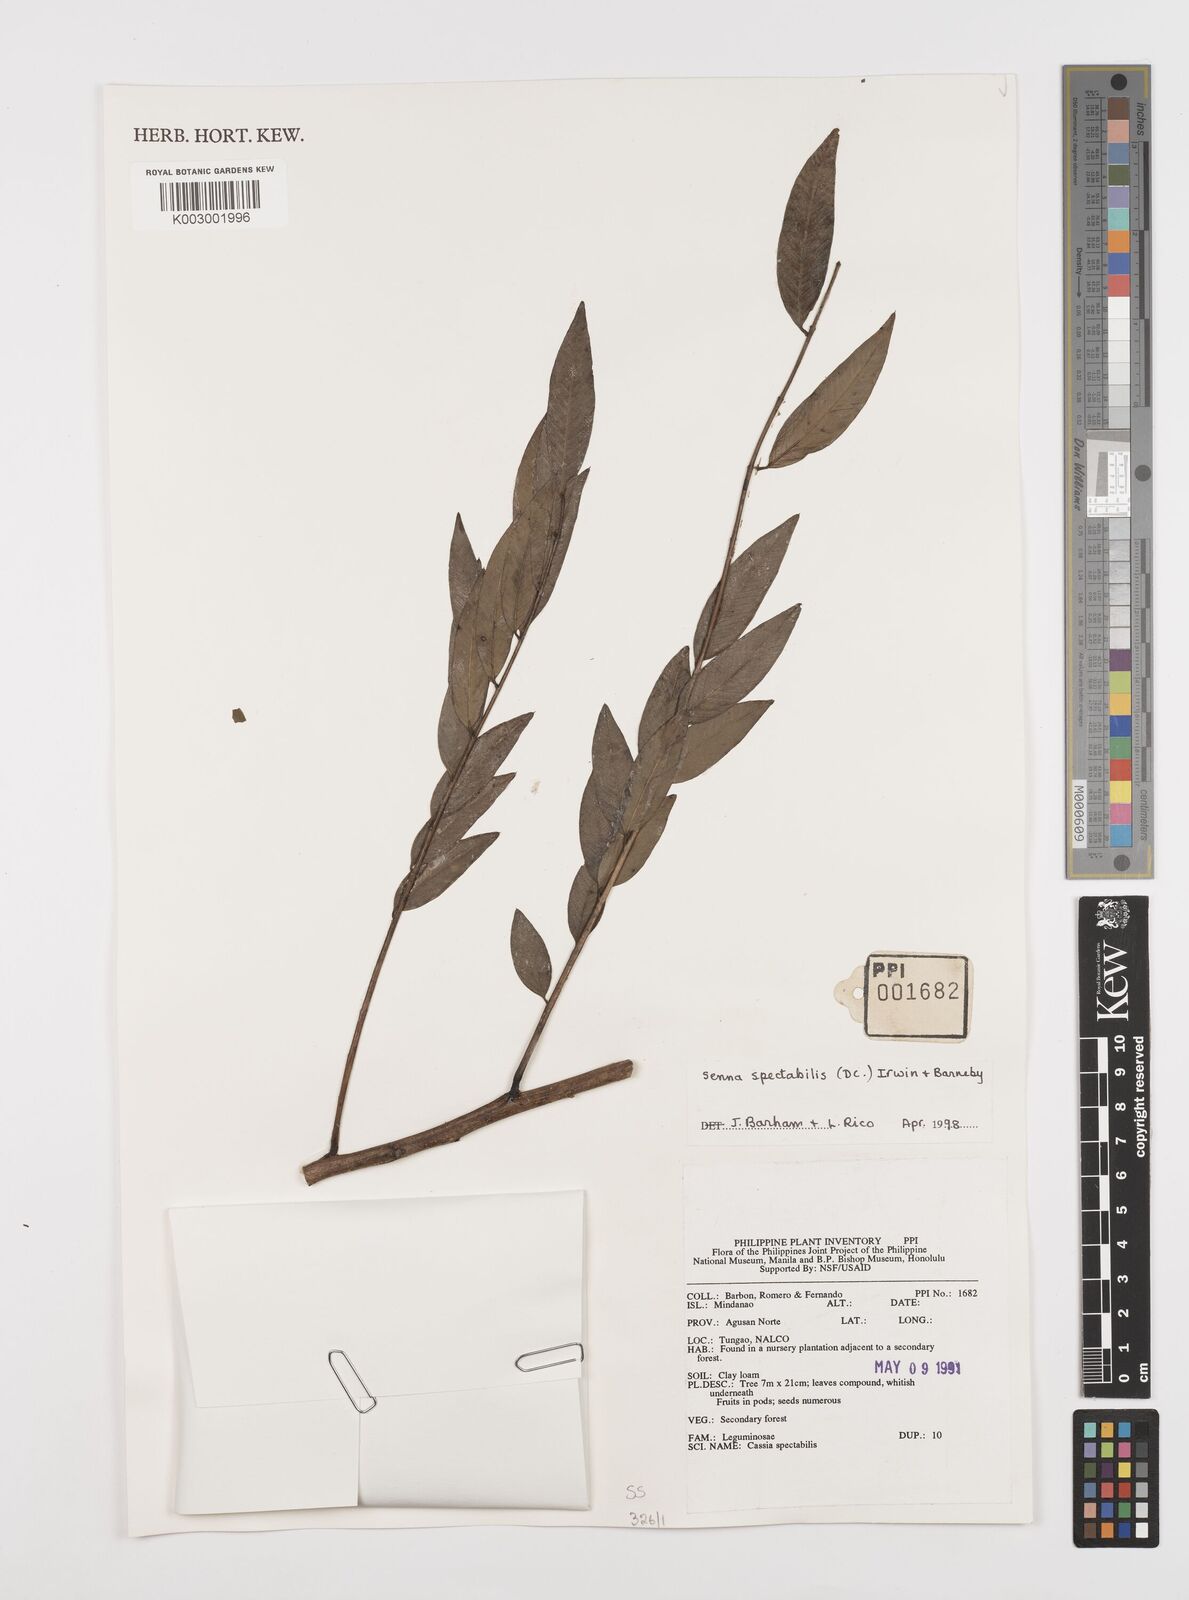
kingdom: Plantae
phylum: Tracheophyta
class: Magnoliopsida
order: Fabales
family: Fabaceae
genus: Senna
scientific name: Senna spectabilis
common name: Casia amarilla
